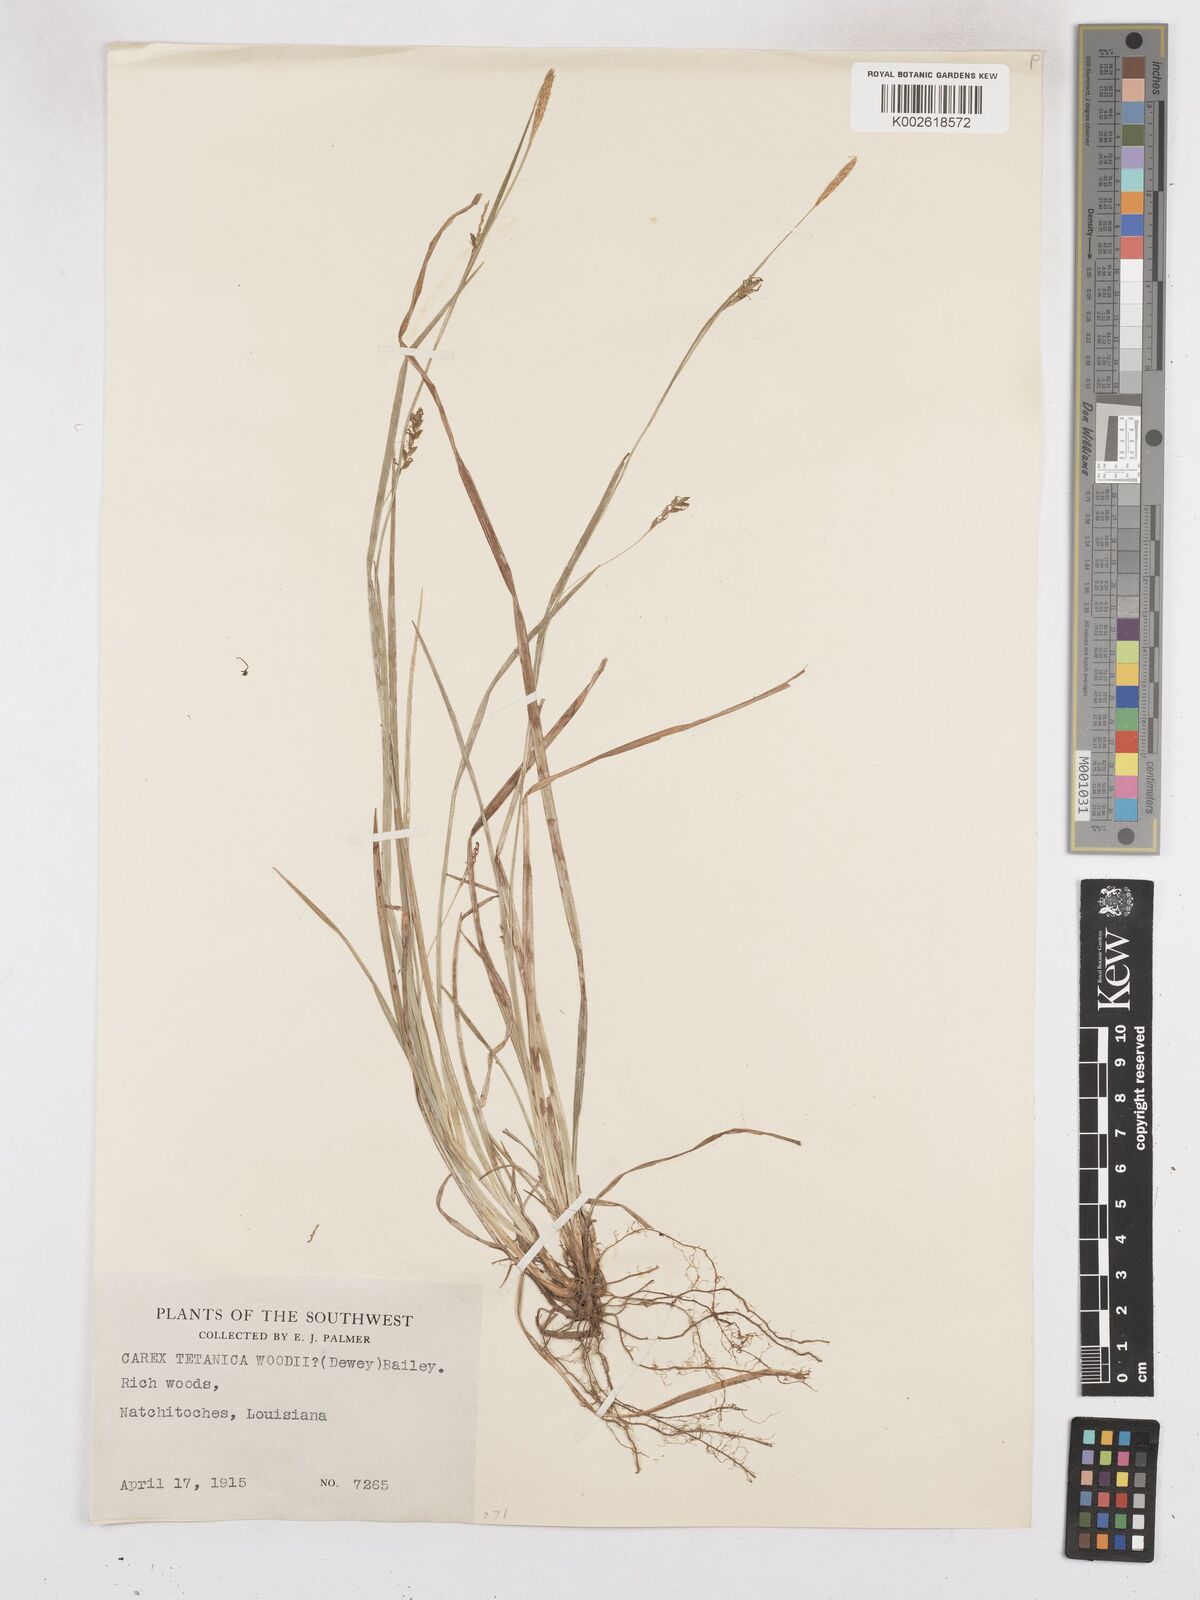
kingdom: Plantae
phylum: Tracheophyta
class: Liliopsida
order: Poales
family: Cyperaceae
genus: Carex
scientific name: Carex woodii
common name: Wood's sedge
